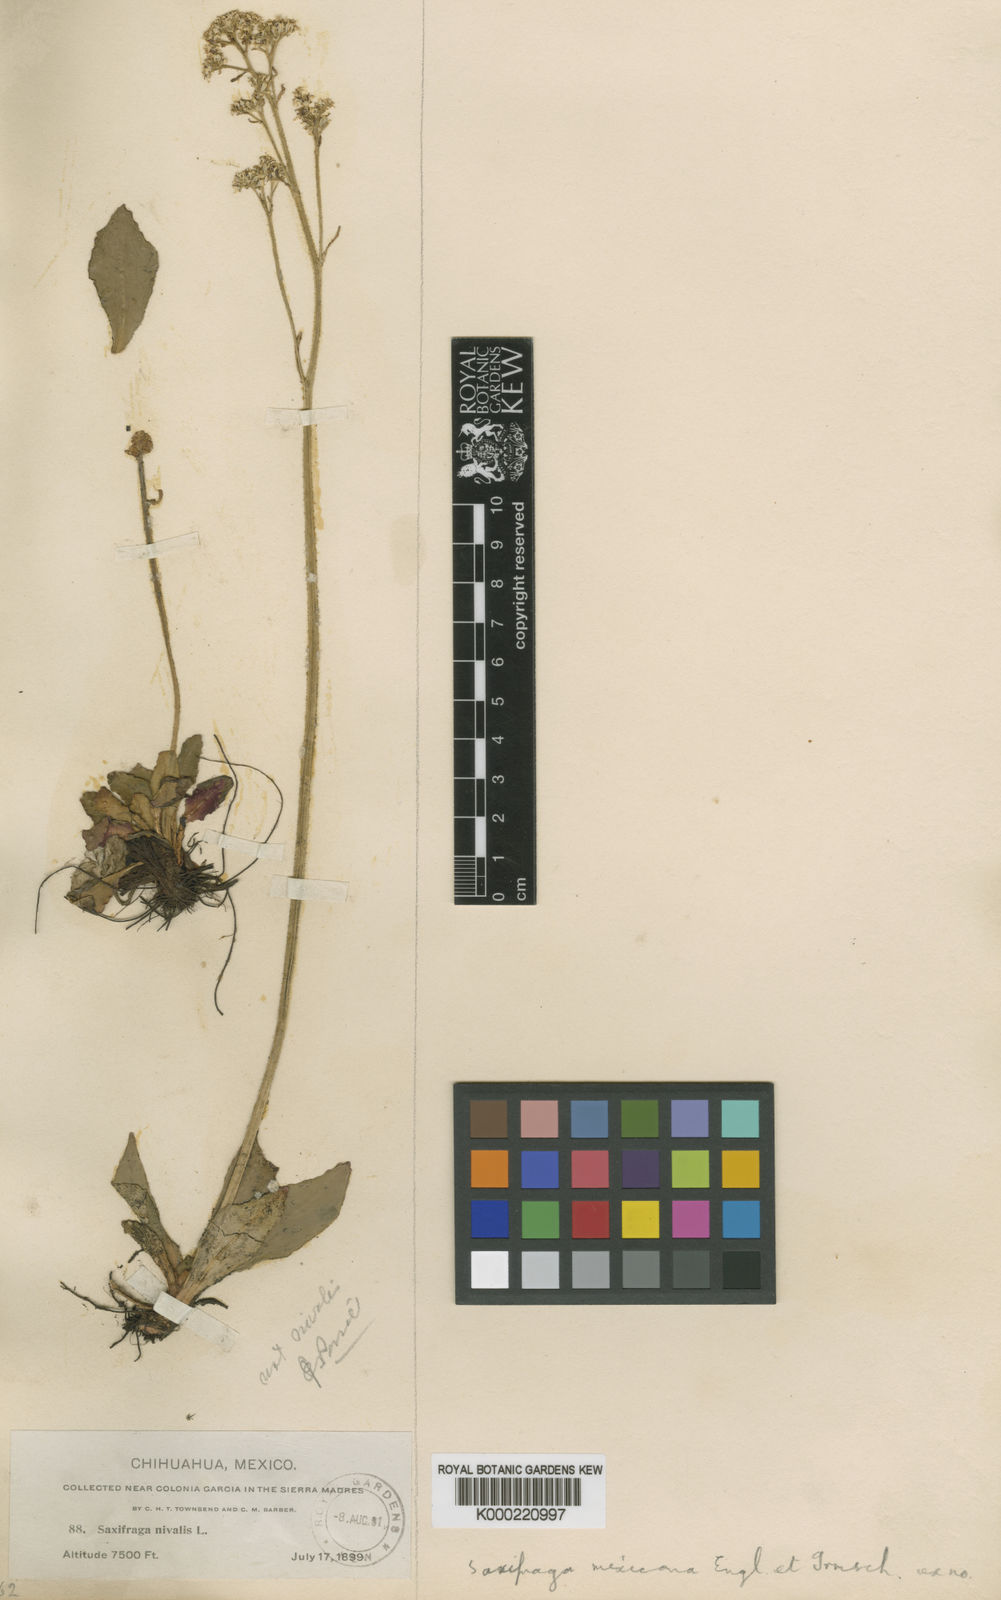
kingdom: Plantae
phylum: Tracheophyta
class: Magnoliopsida
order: Saxifragales
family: Saxifragaceae
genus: Micranthes
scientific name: Micranthes mexicana
